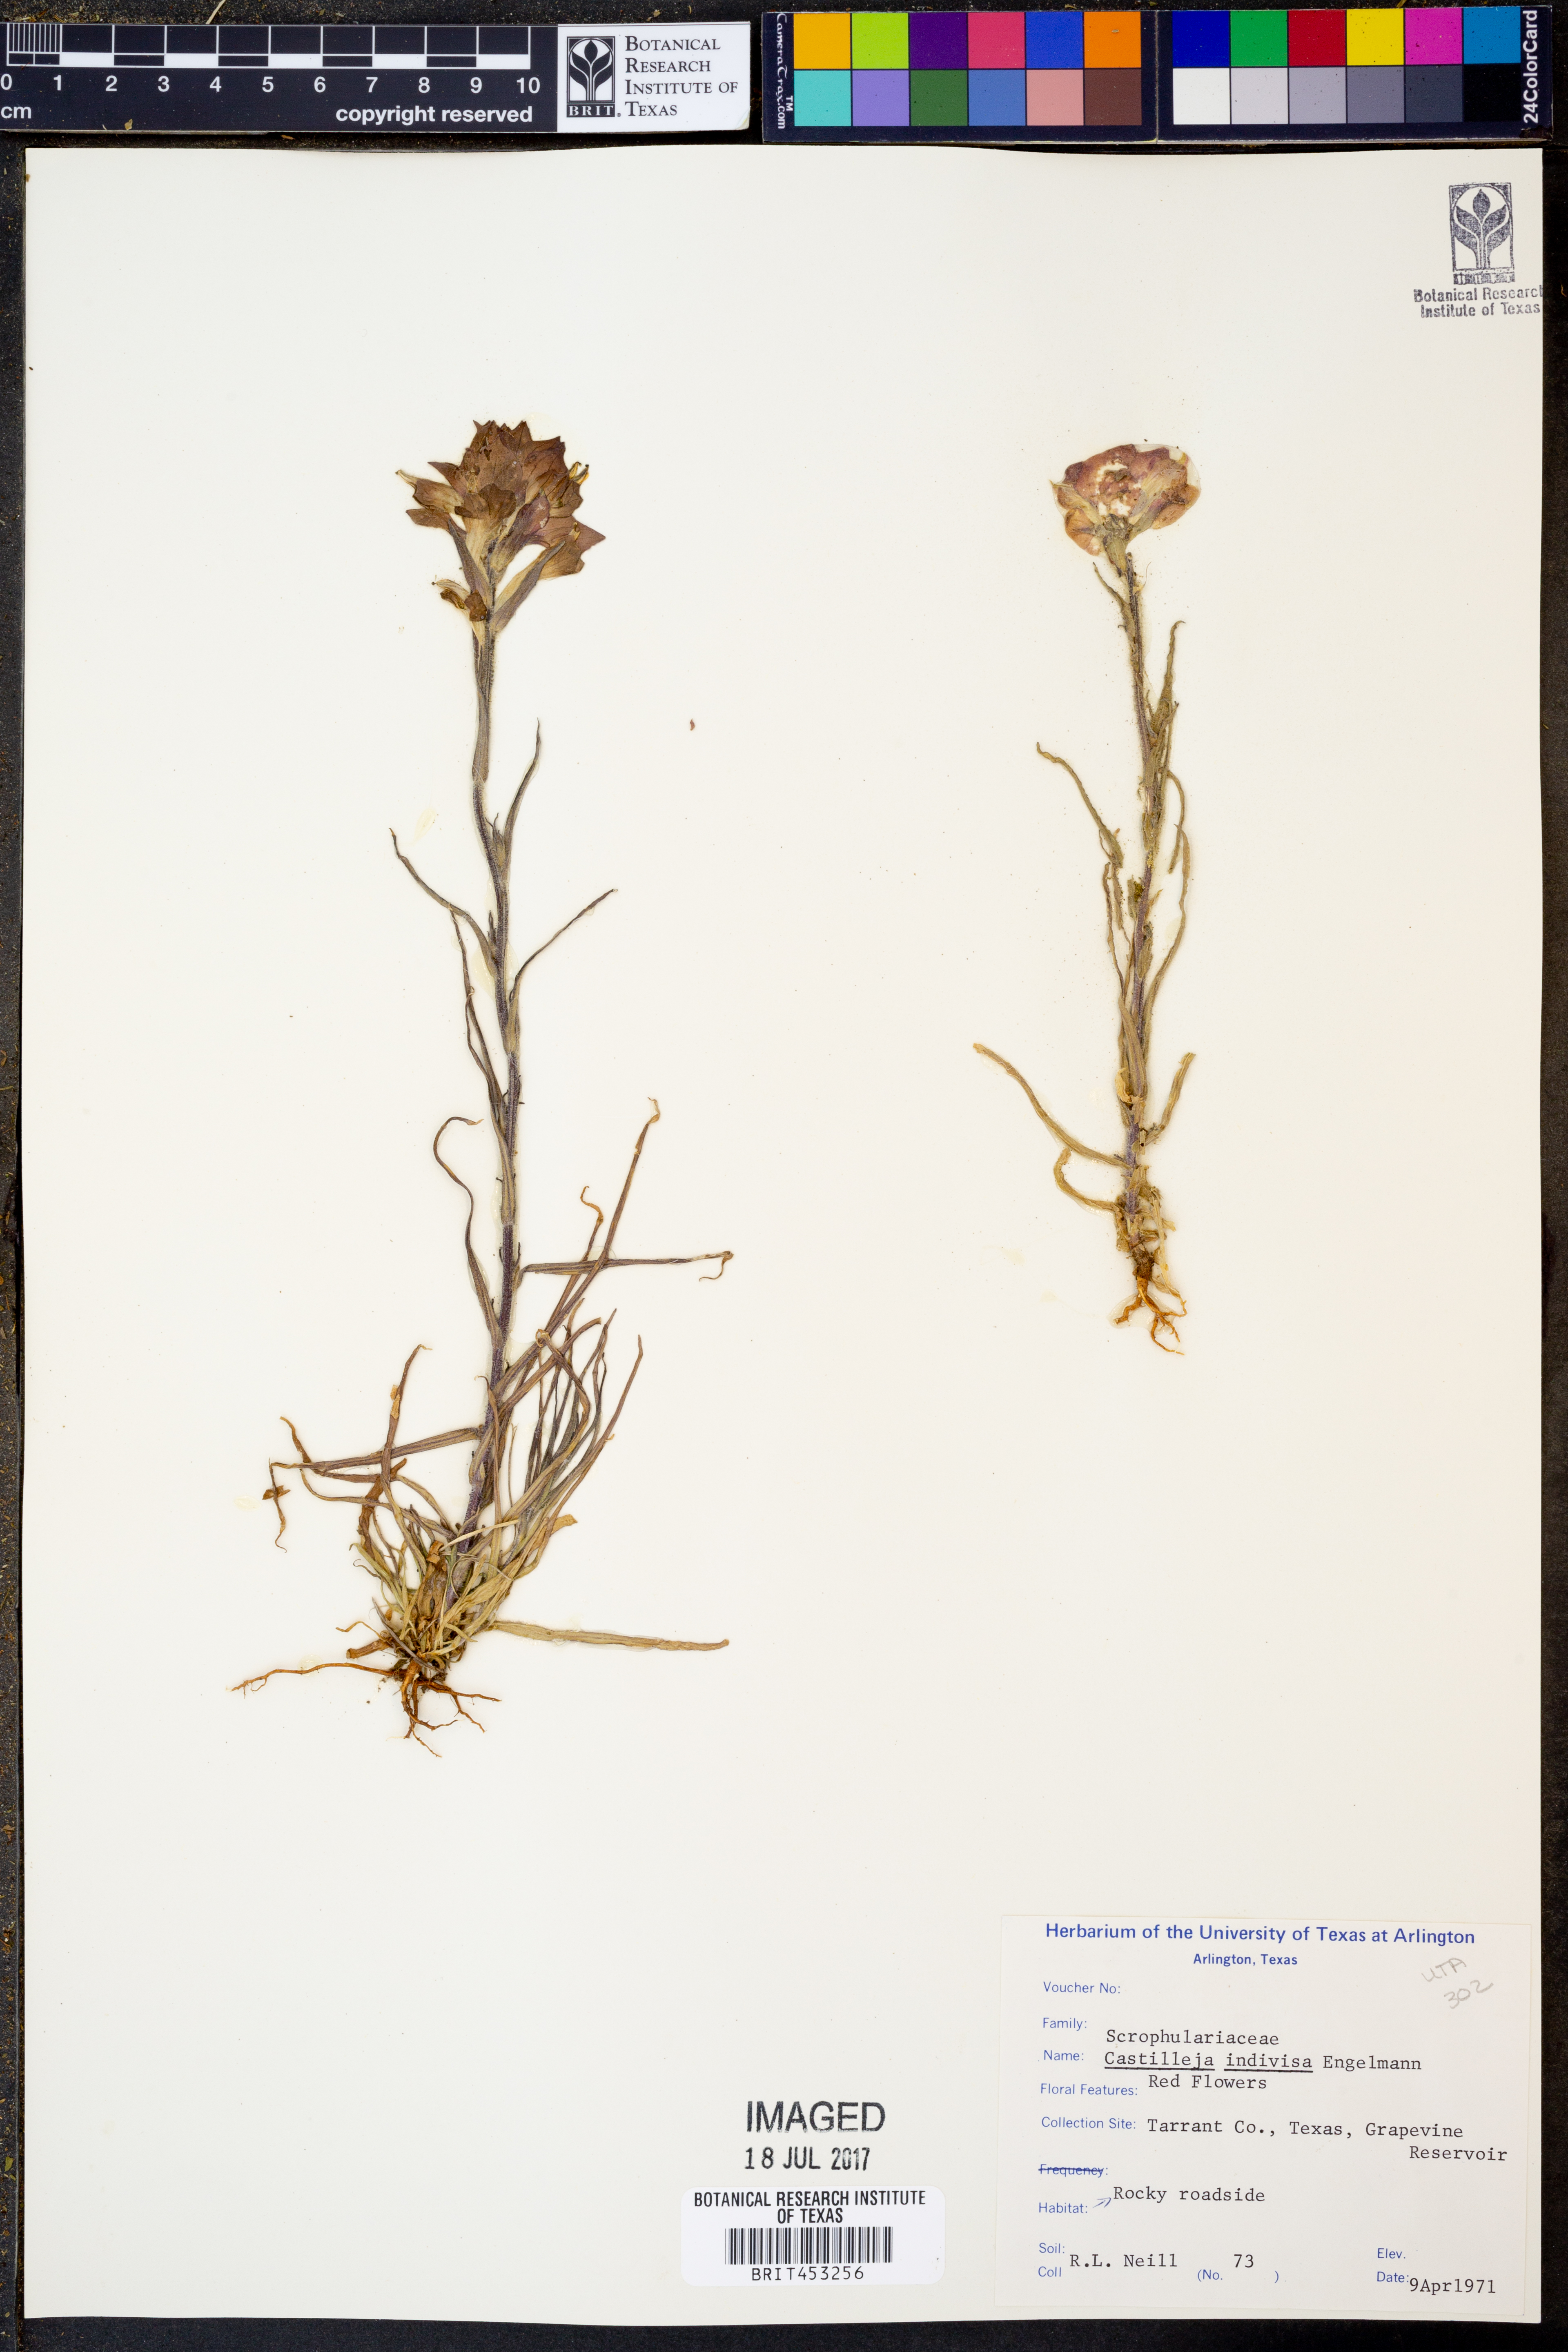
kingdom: Plantae
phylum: Tracheophyta
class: Magnoliopsida
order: Lamiales
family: Orobanchaceae
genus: Castilleja
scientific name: Castilleja indivisa
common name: Texas paintbrush
